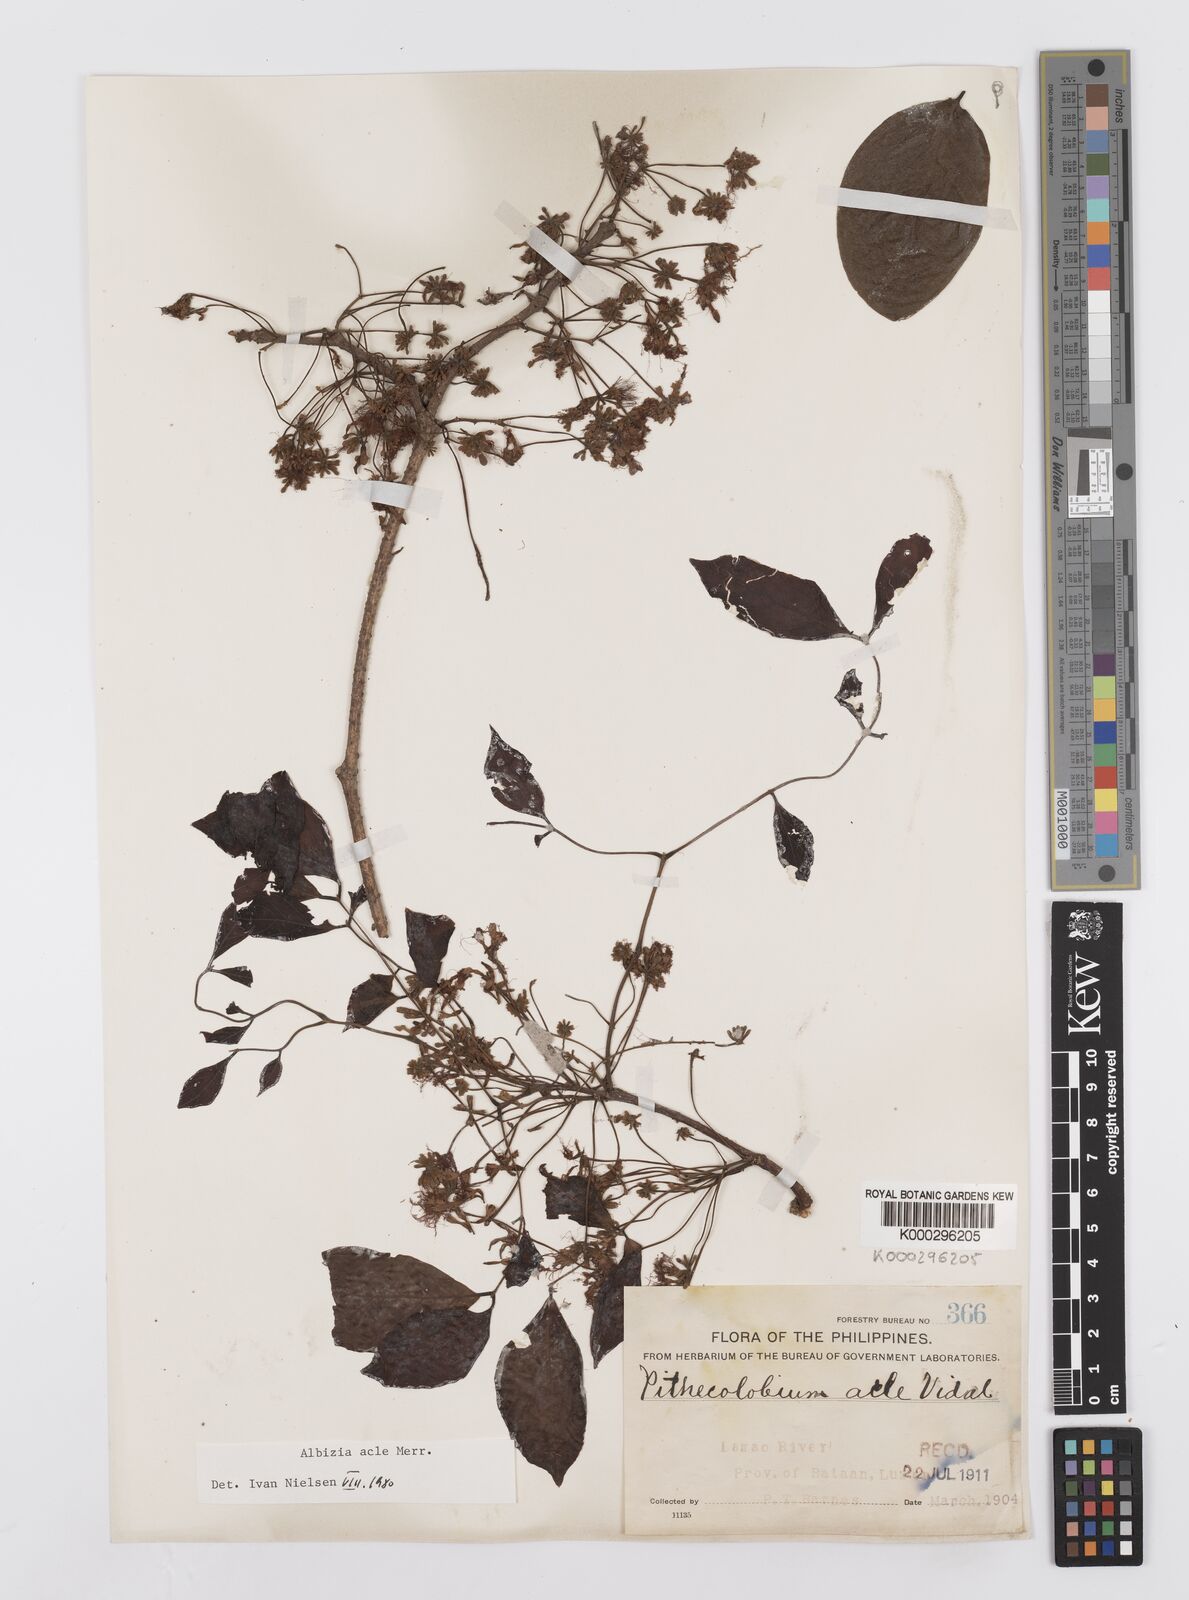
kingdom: Plantae
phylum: Tracheophyta
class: Magnoliopsida
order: Fabales
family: Fabaceae
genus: Albizia
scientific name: Albizia acle
